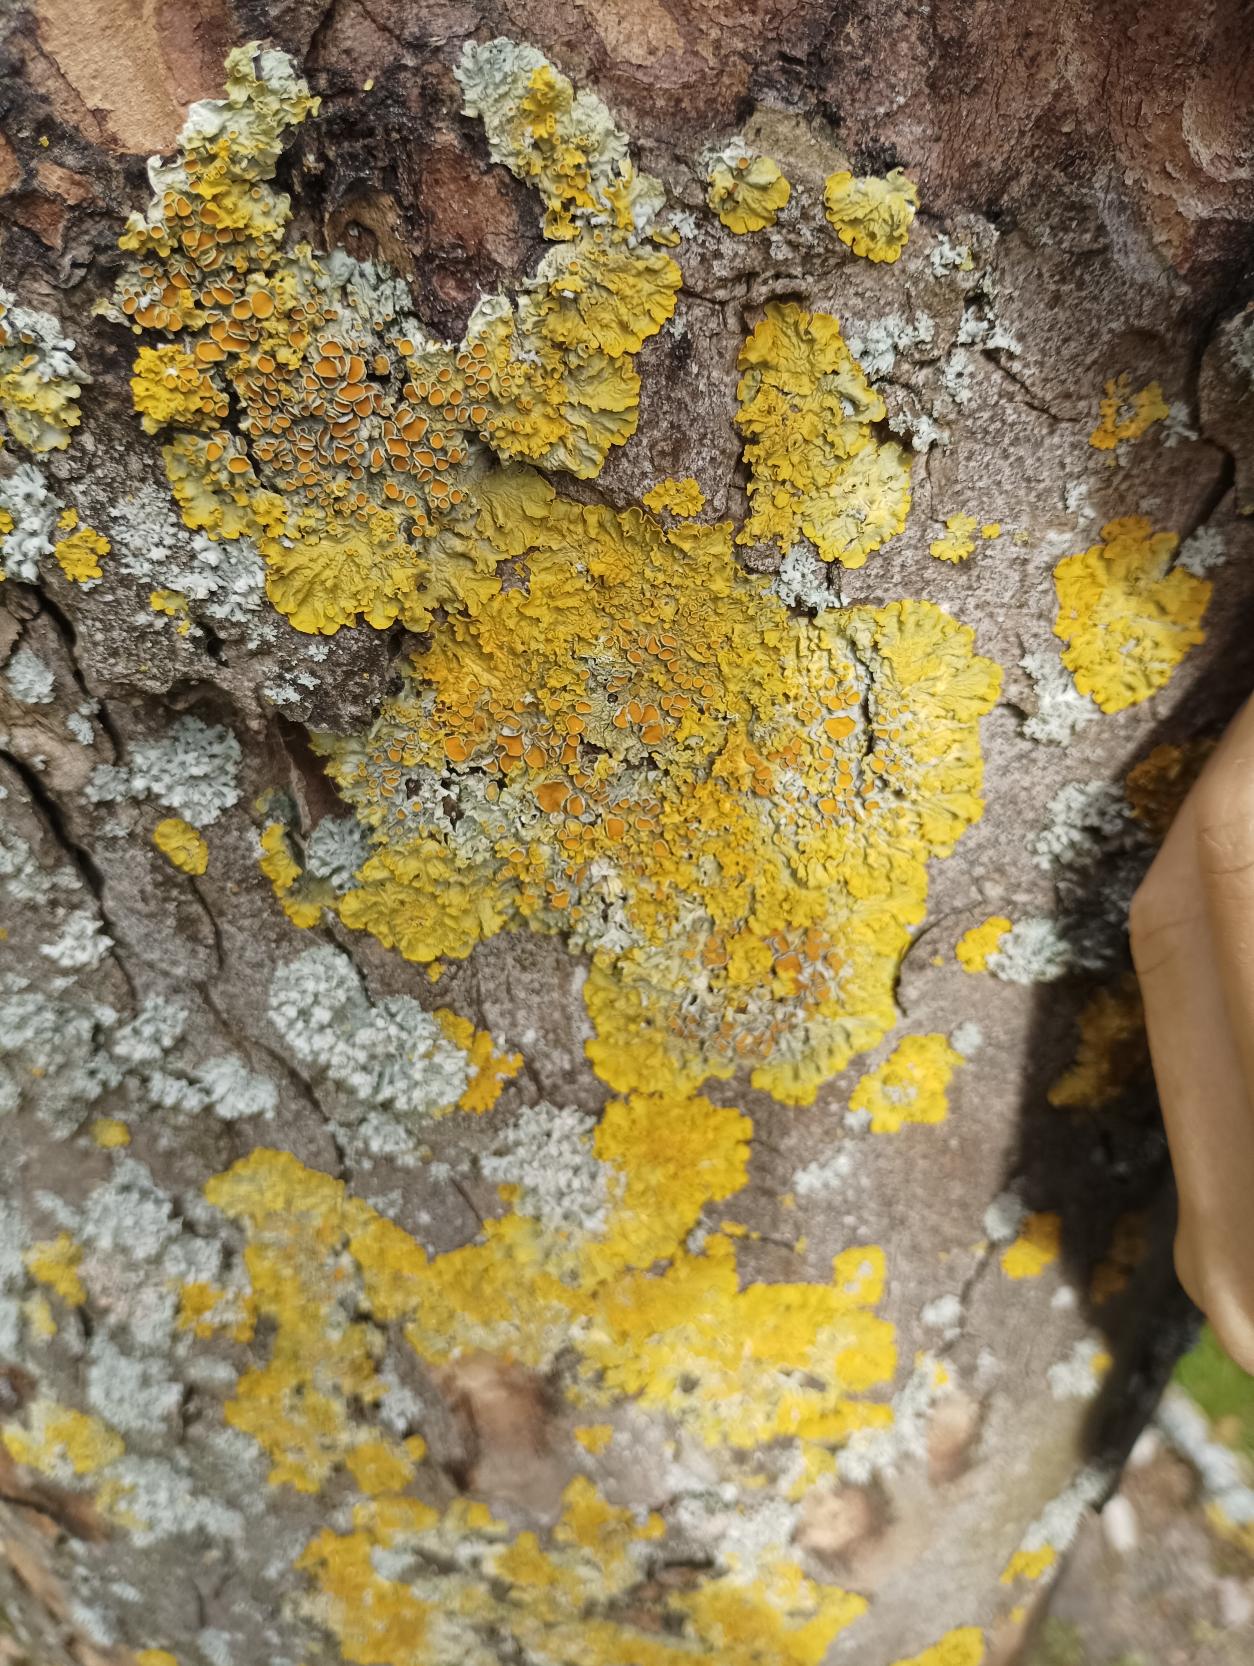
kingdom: Fungi
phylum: Ascomycota
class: Lecanoromycetes
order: Teloschistales
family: Teloschistaceae
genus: Xanthoria
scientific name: Xanthoria parietina
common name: Almindelig væggelav
